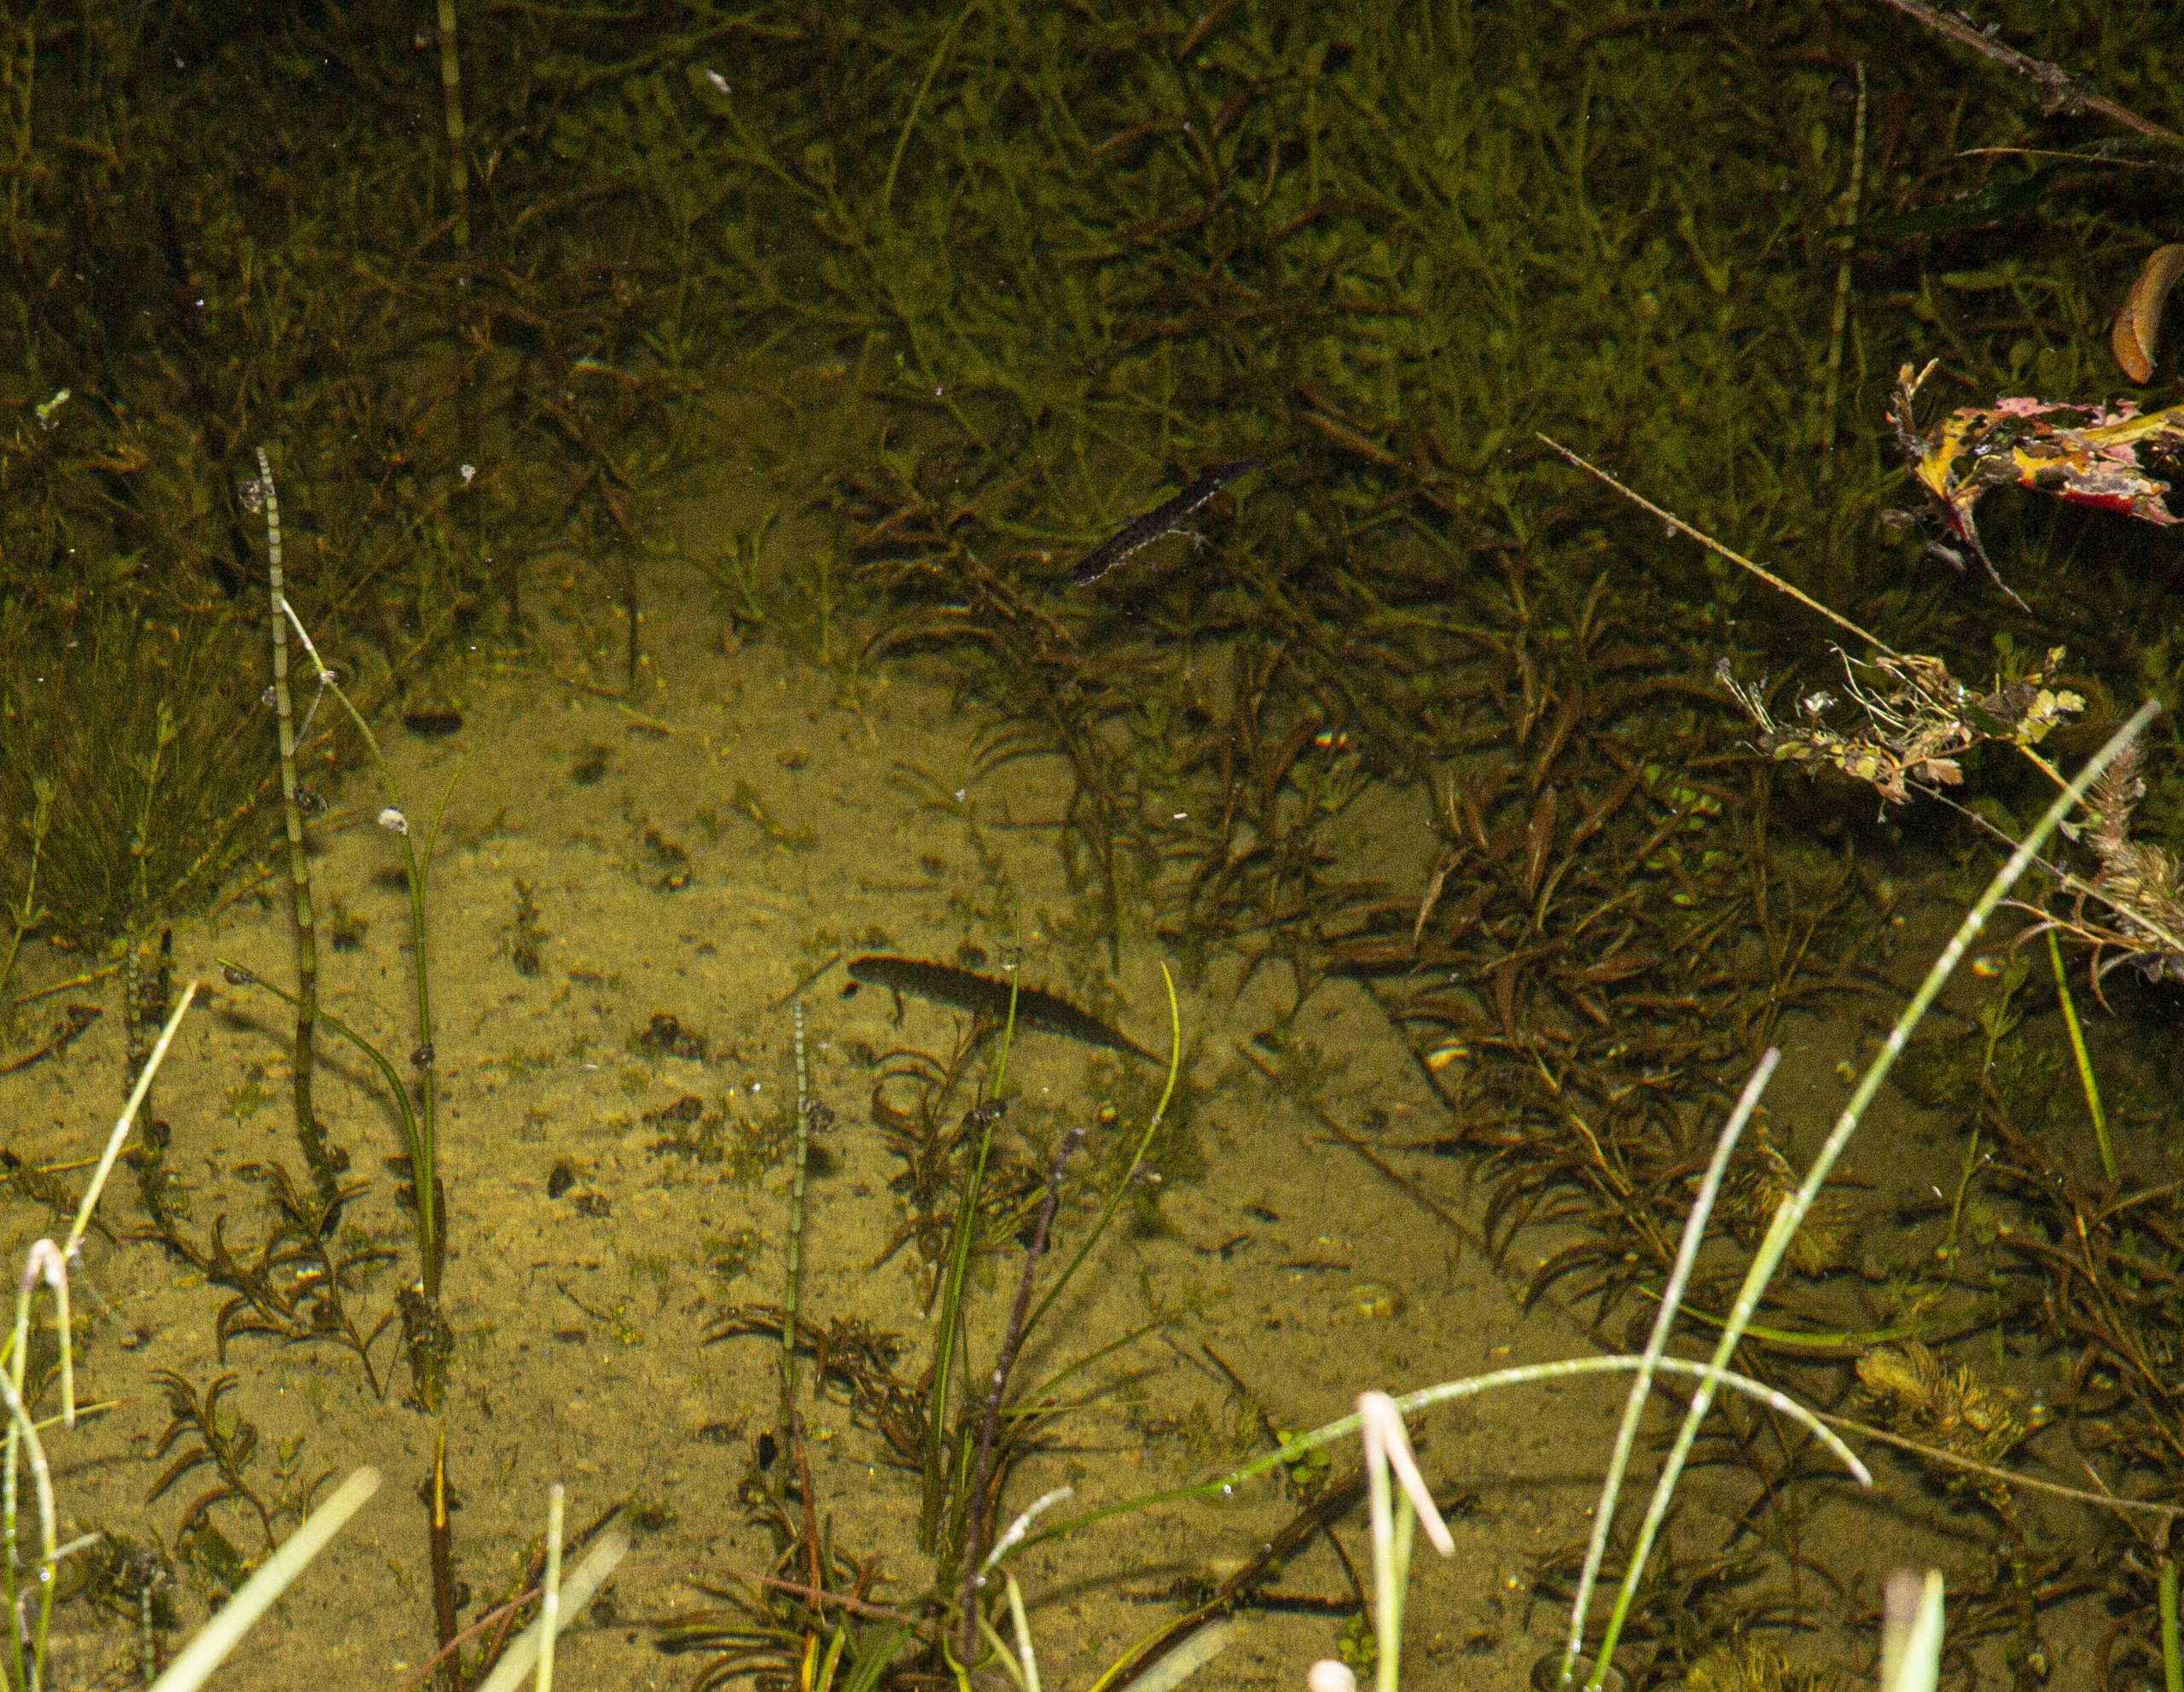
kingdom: Animalia
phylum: Chordata
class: Amphibia
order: Caudata
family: Salamandridae
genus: Lissotriton
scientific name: Lissotriton vulgaris
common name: Lille vandsalamander
